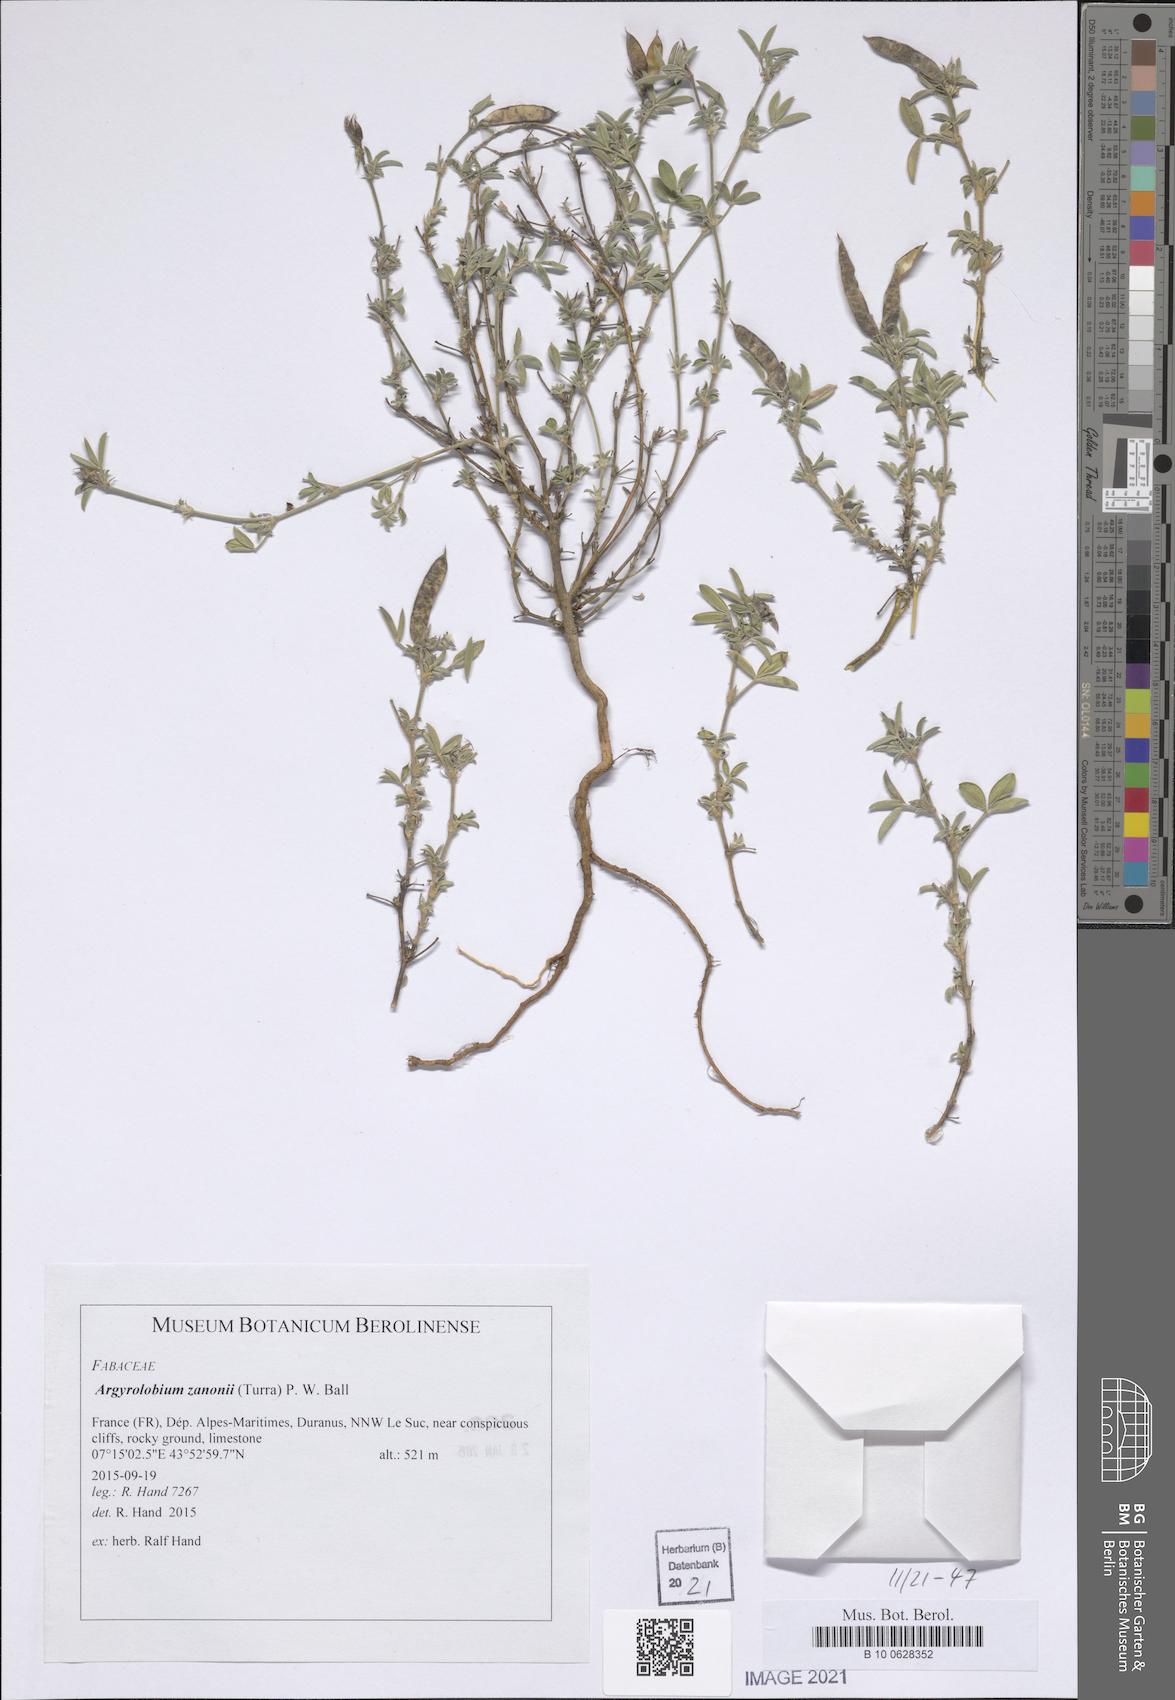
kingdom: Plantae
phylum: Tracheophyta
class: Magnoliopsida
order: Fabales
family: Fabaceae
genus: Argyrolobium
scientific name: Argyrolobium zanonii
